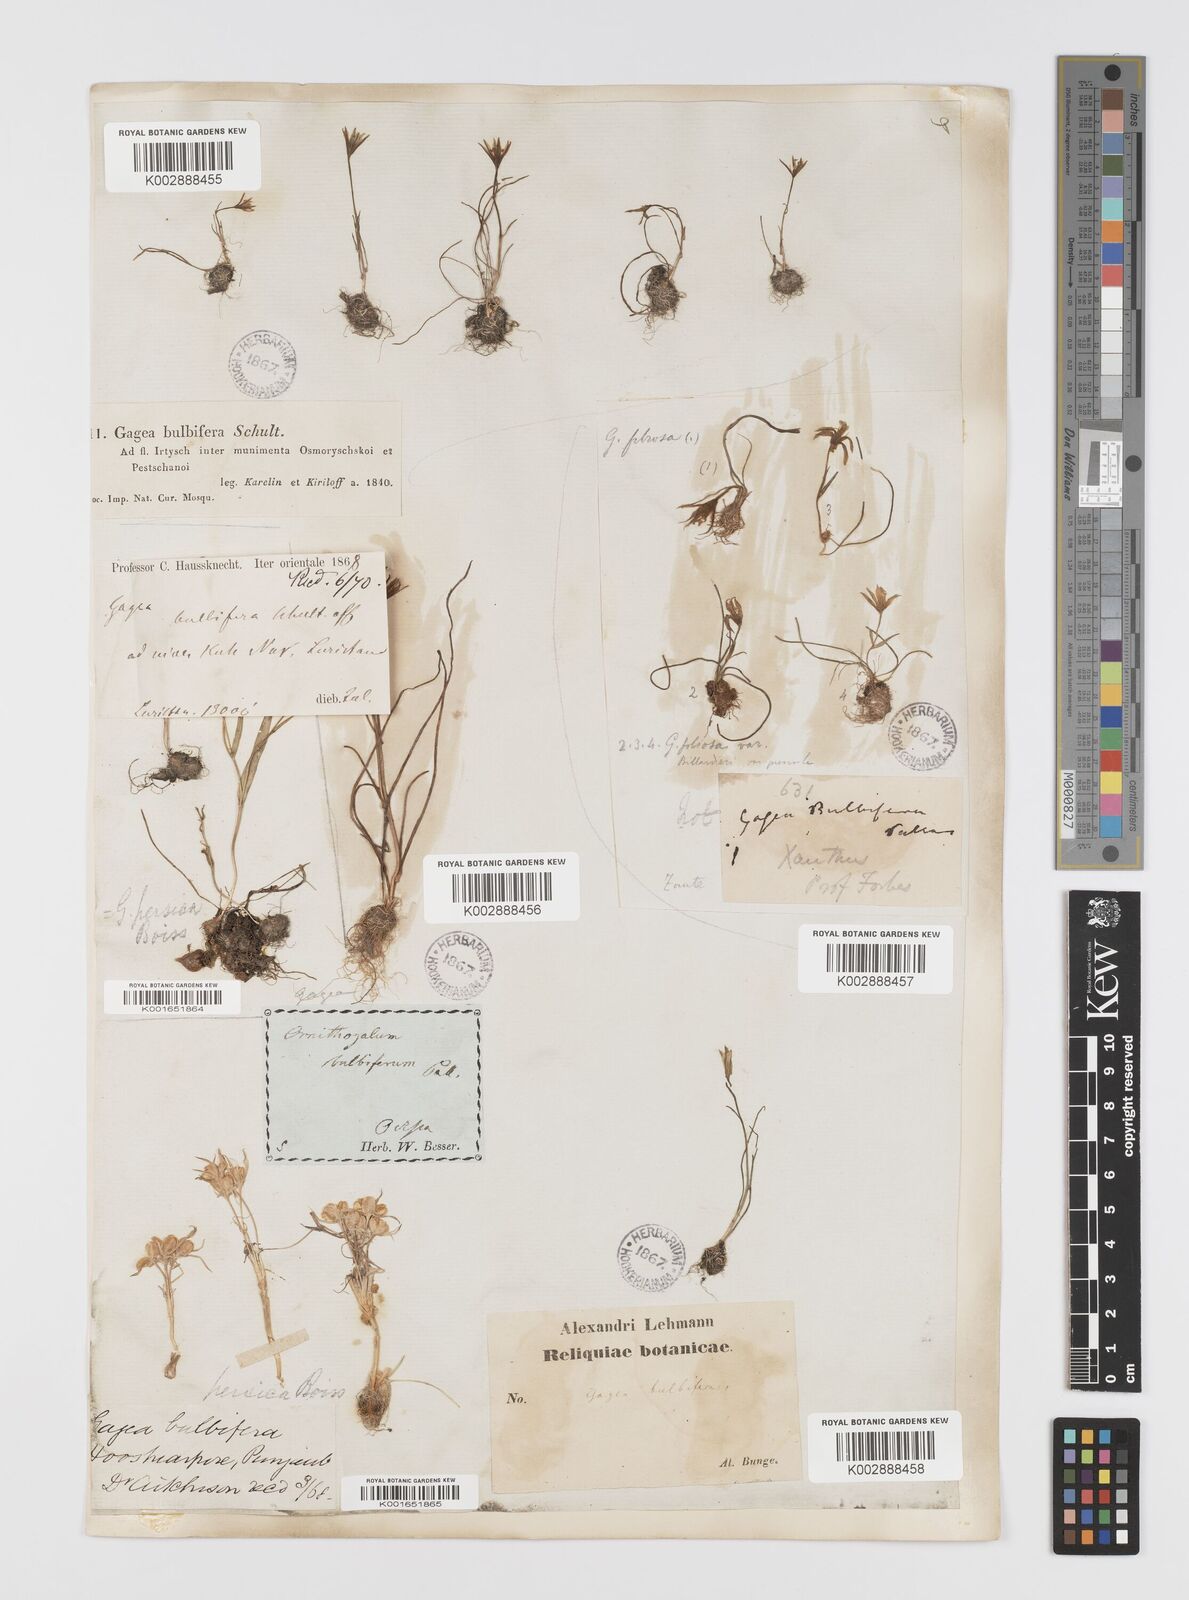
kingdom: Plantae
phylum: Tracheophyta
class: Liliopsida
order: Liliales
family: Liliaceae
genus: Gagea
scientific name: Gagea bulbifera
